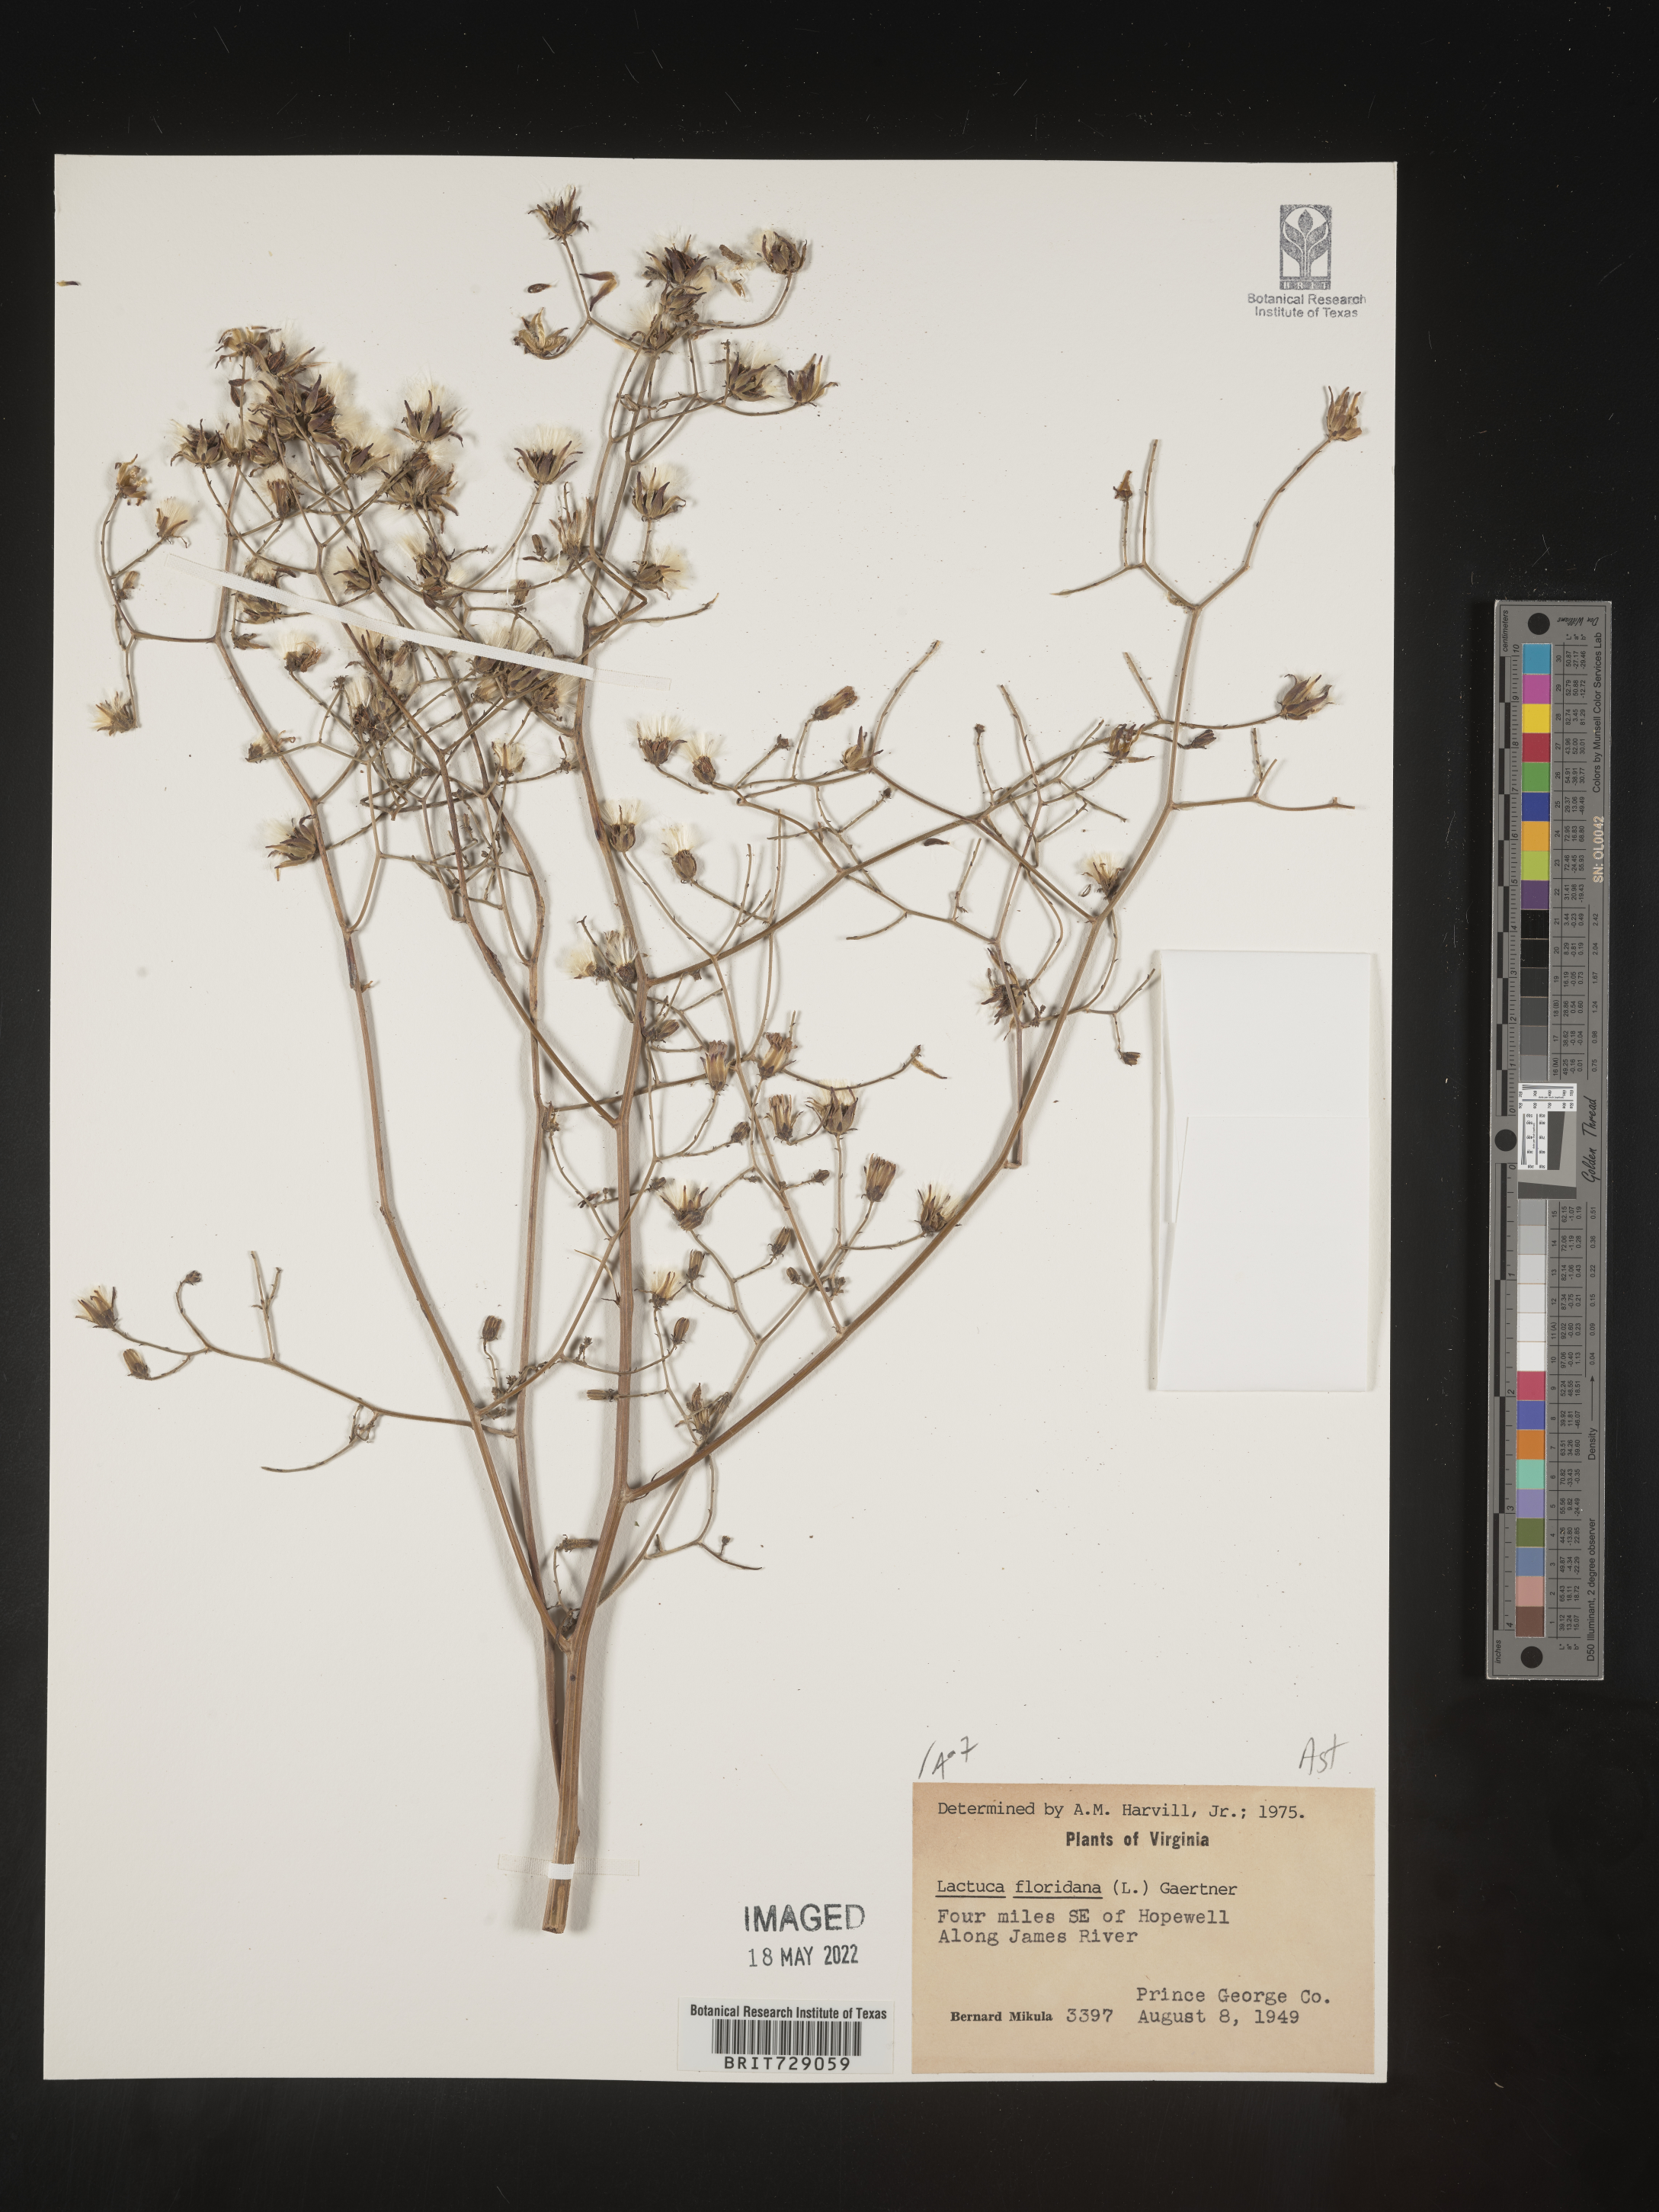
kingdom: Plantae
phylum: Tracheophyta
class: Magnoliopsida
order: Asterales
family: Asteraceae
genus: Lactuca
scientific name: Lactuca floridana
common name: Woodland lettuce
